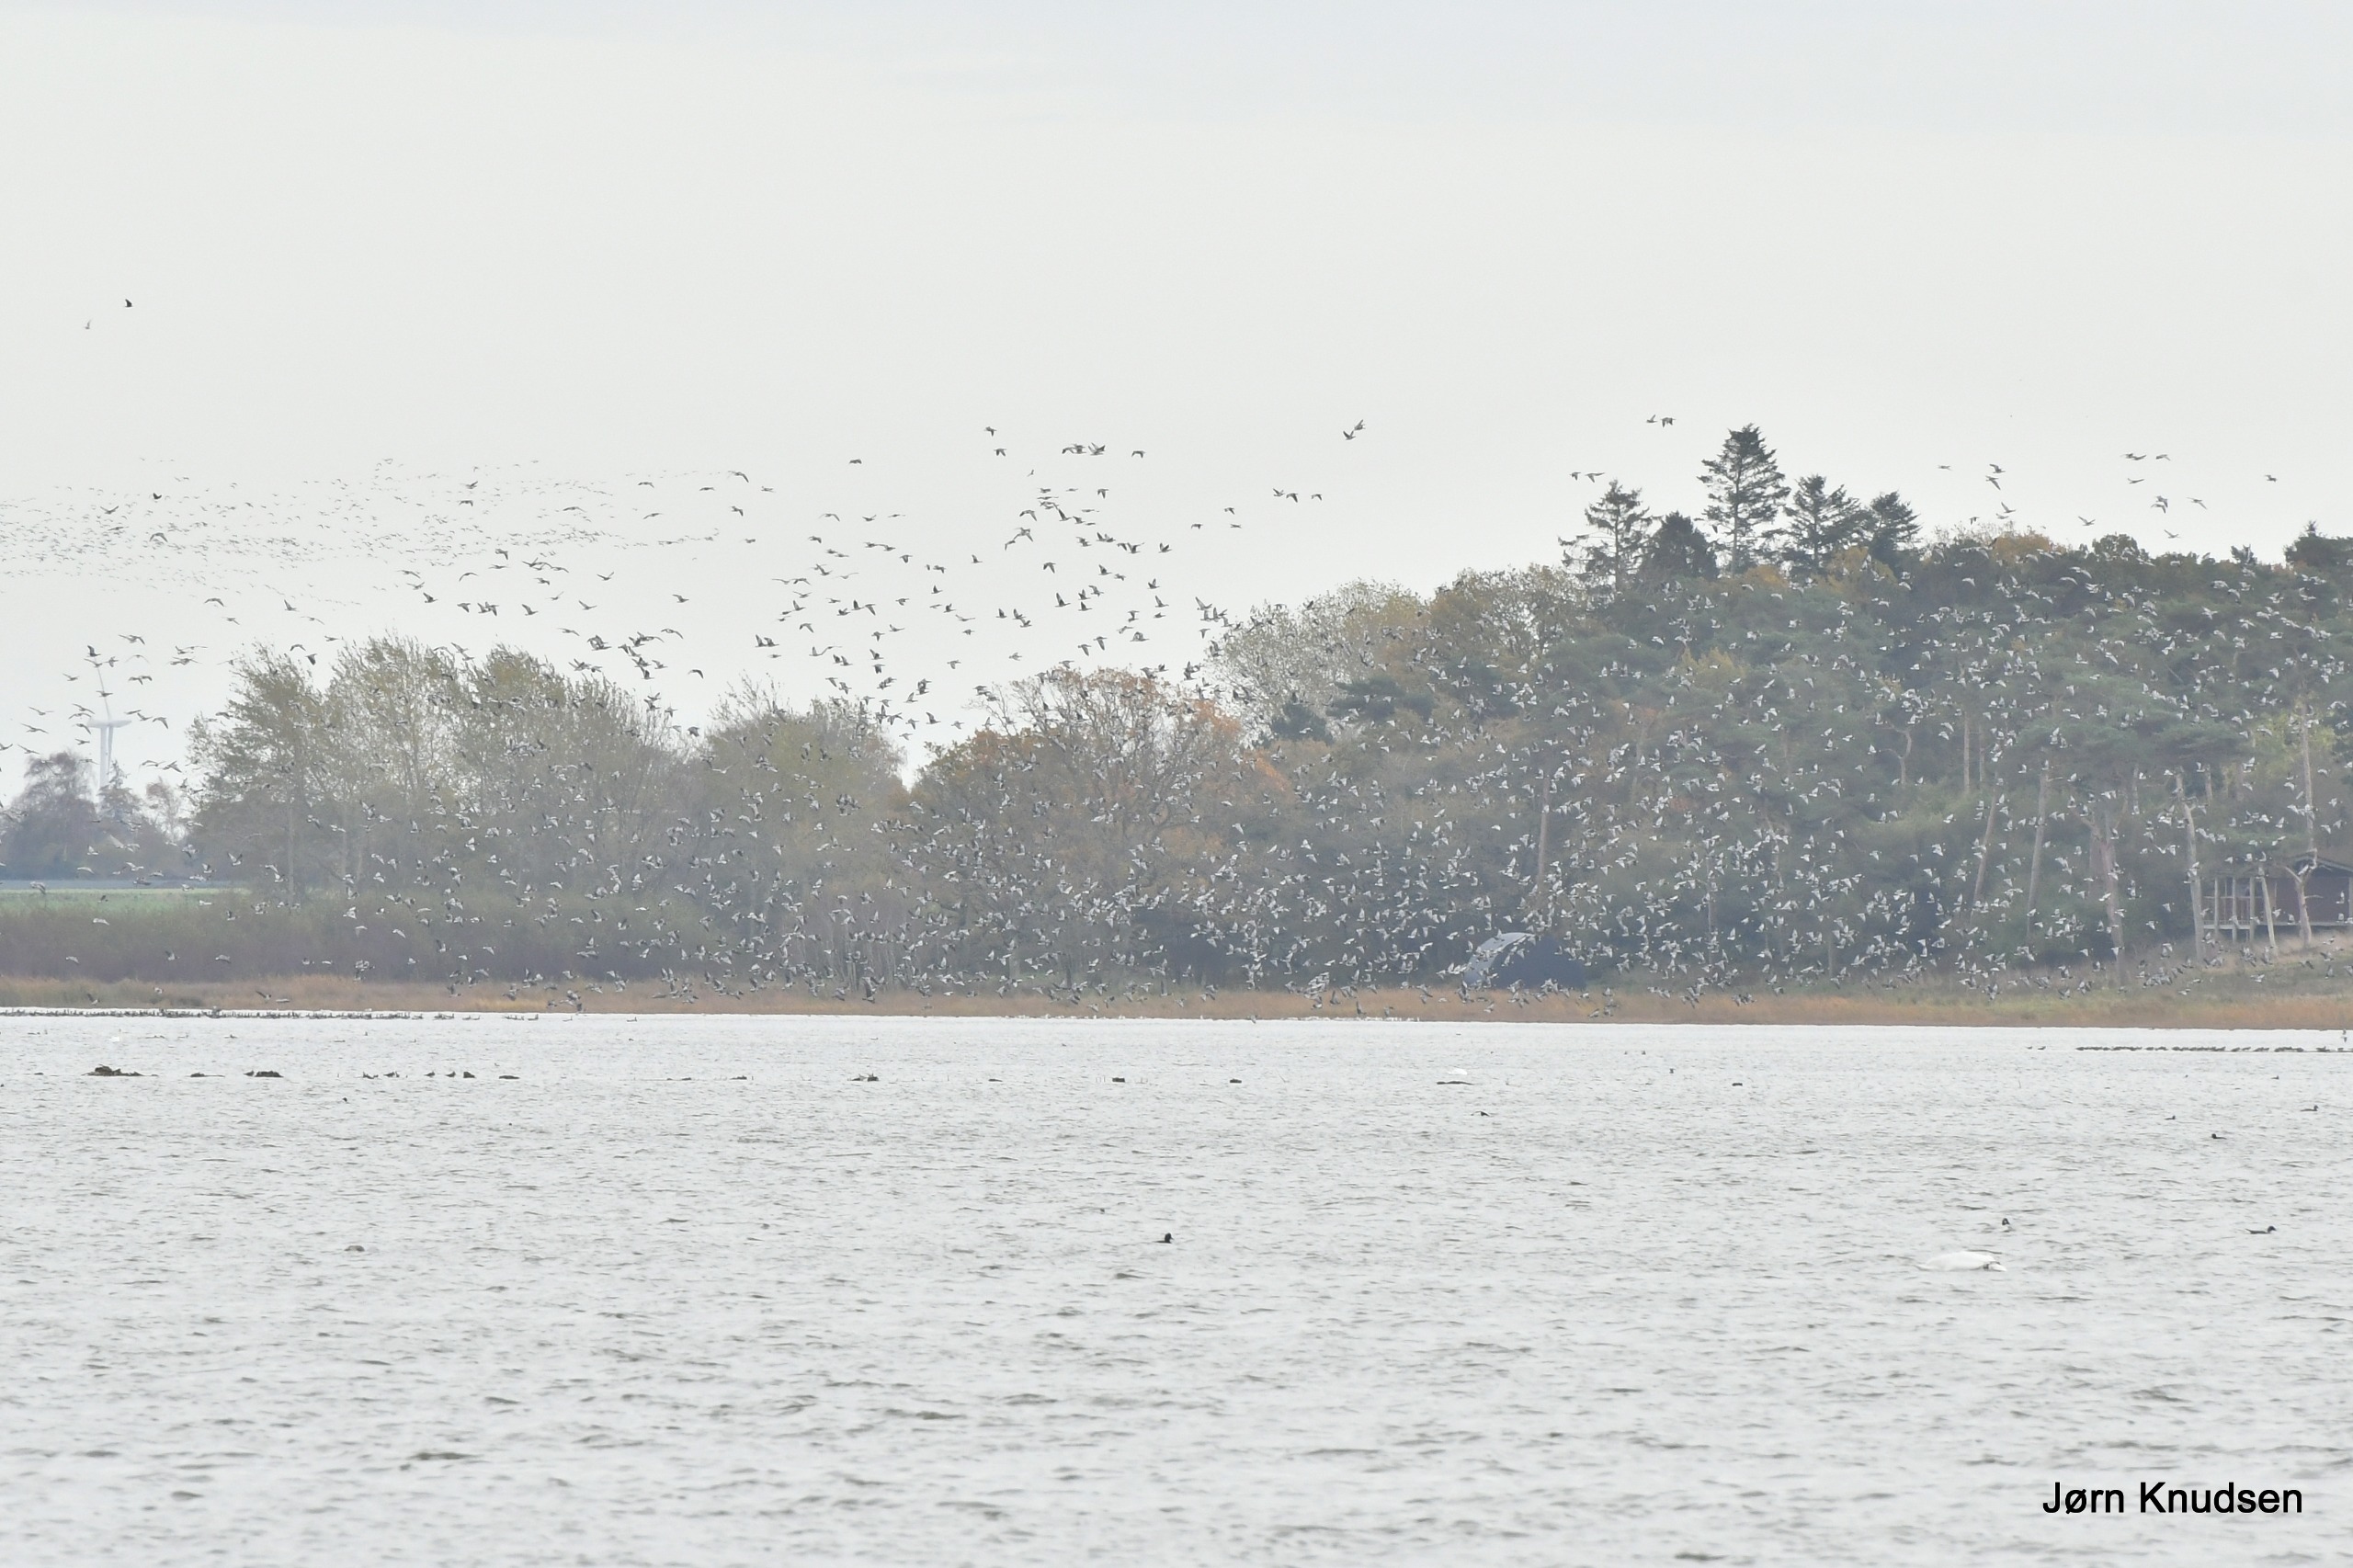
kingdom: Animalia
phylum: Chordata
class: Aves
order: Anseriformes
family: Anatidae
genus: Branta
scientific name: Branta leucopsis
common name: Bramgås
